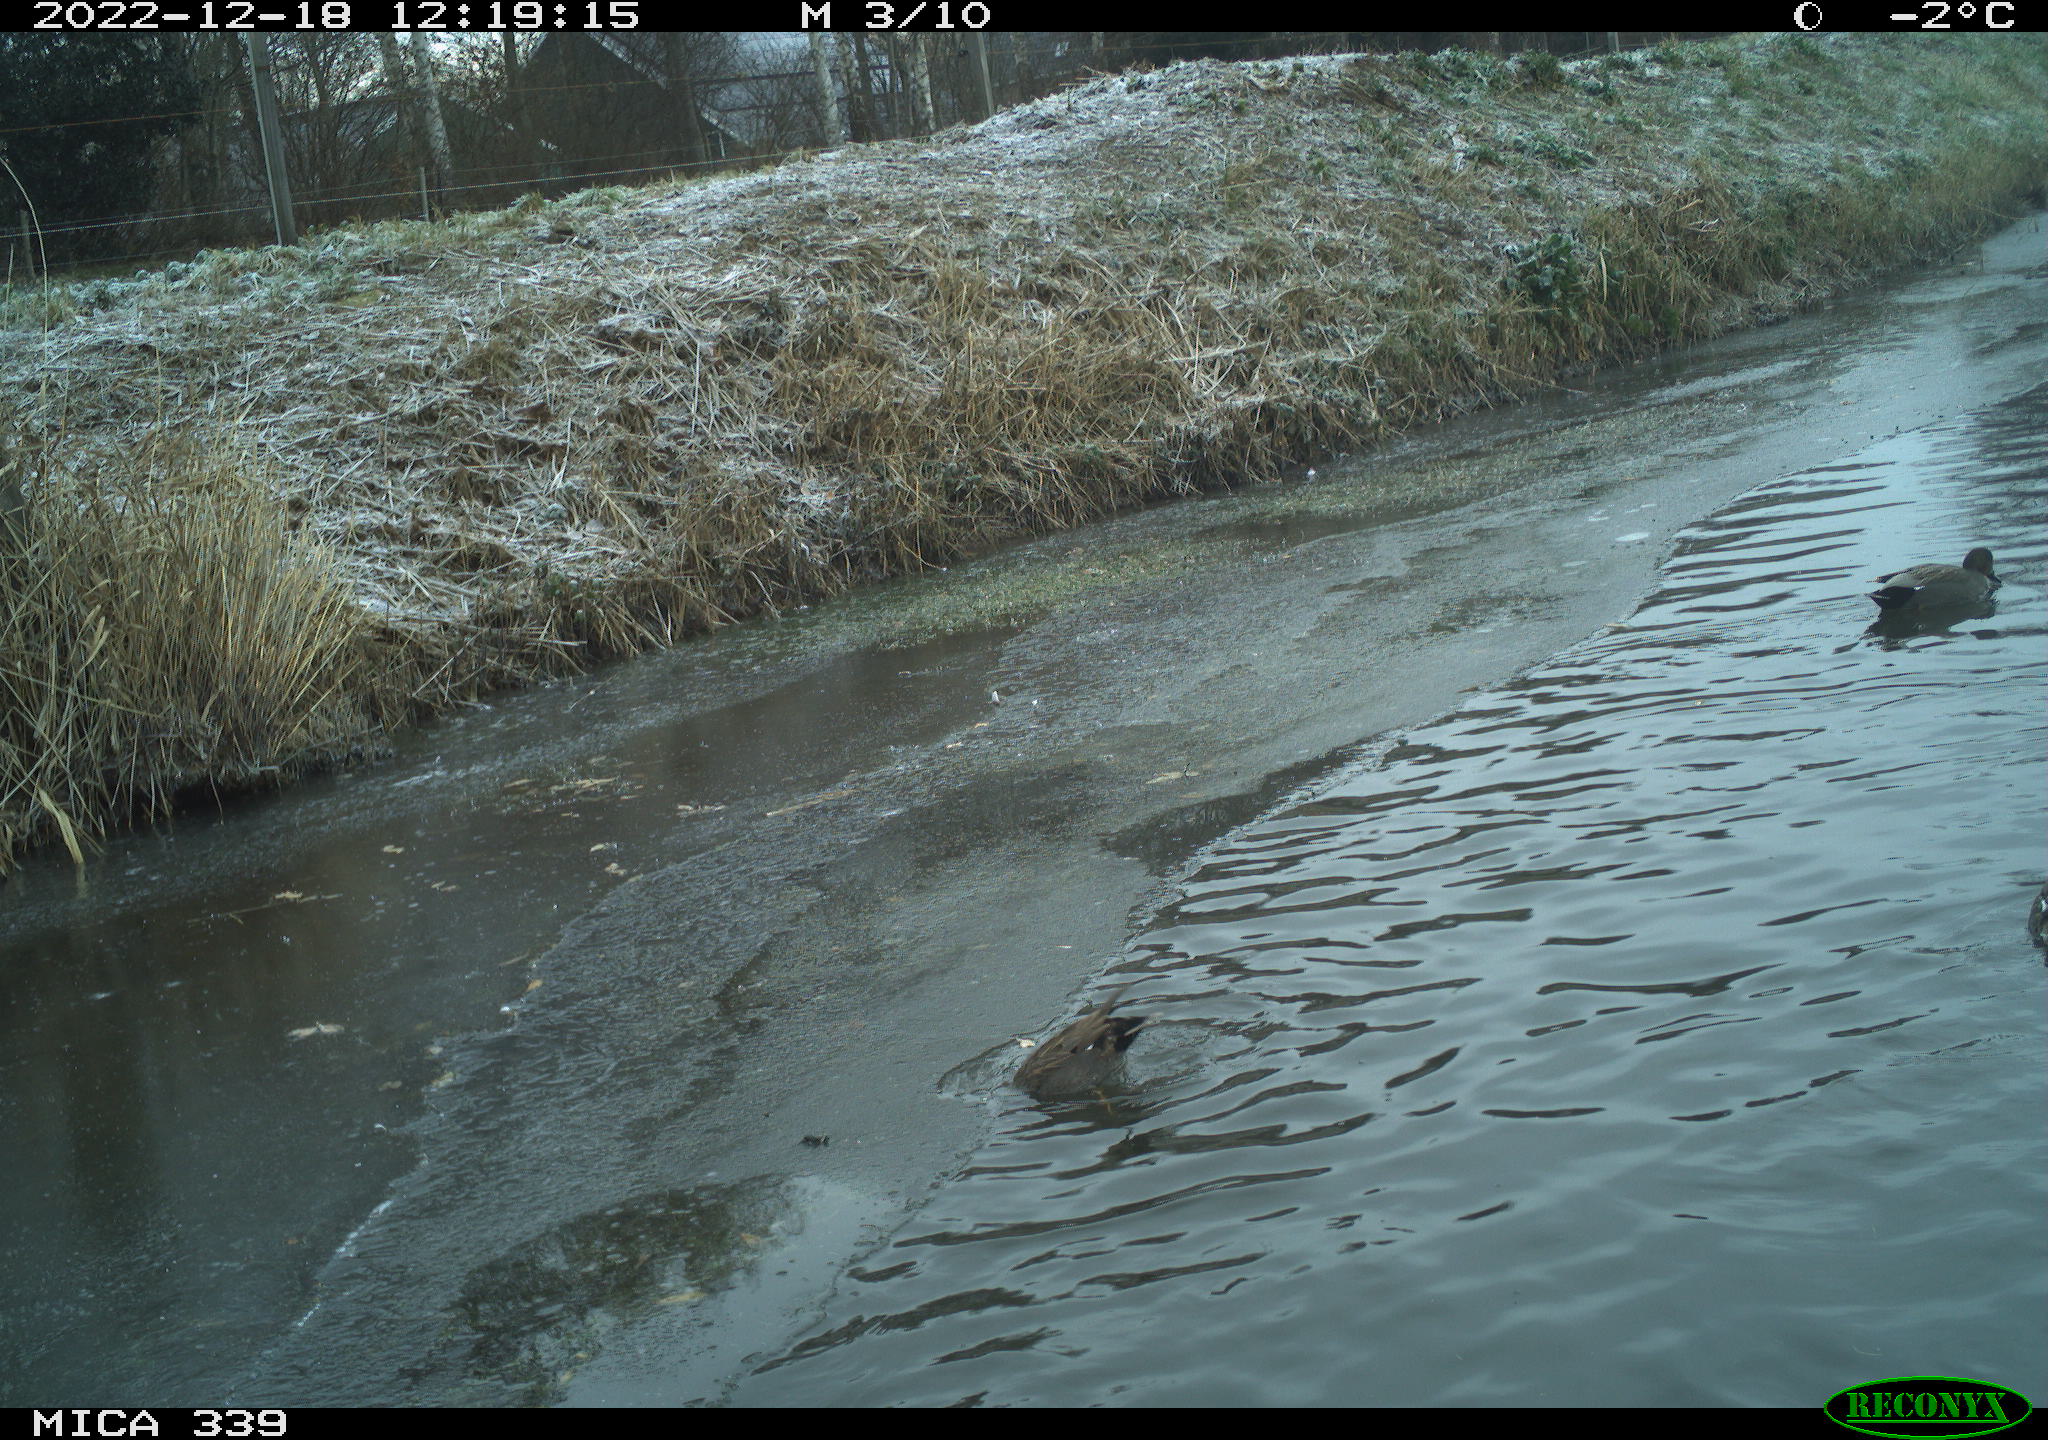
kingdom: Animalia
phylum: Chordata
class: Aves
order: Anseriformes
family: Anatidae
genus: Anas
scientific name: Anas
